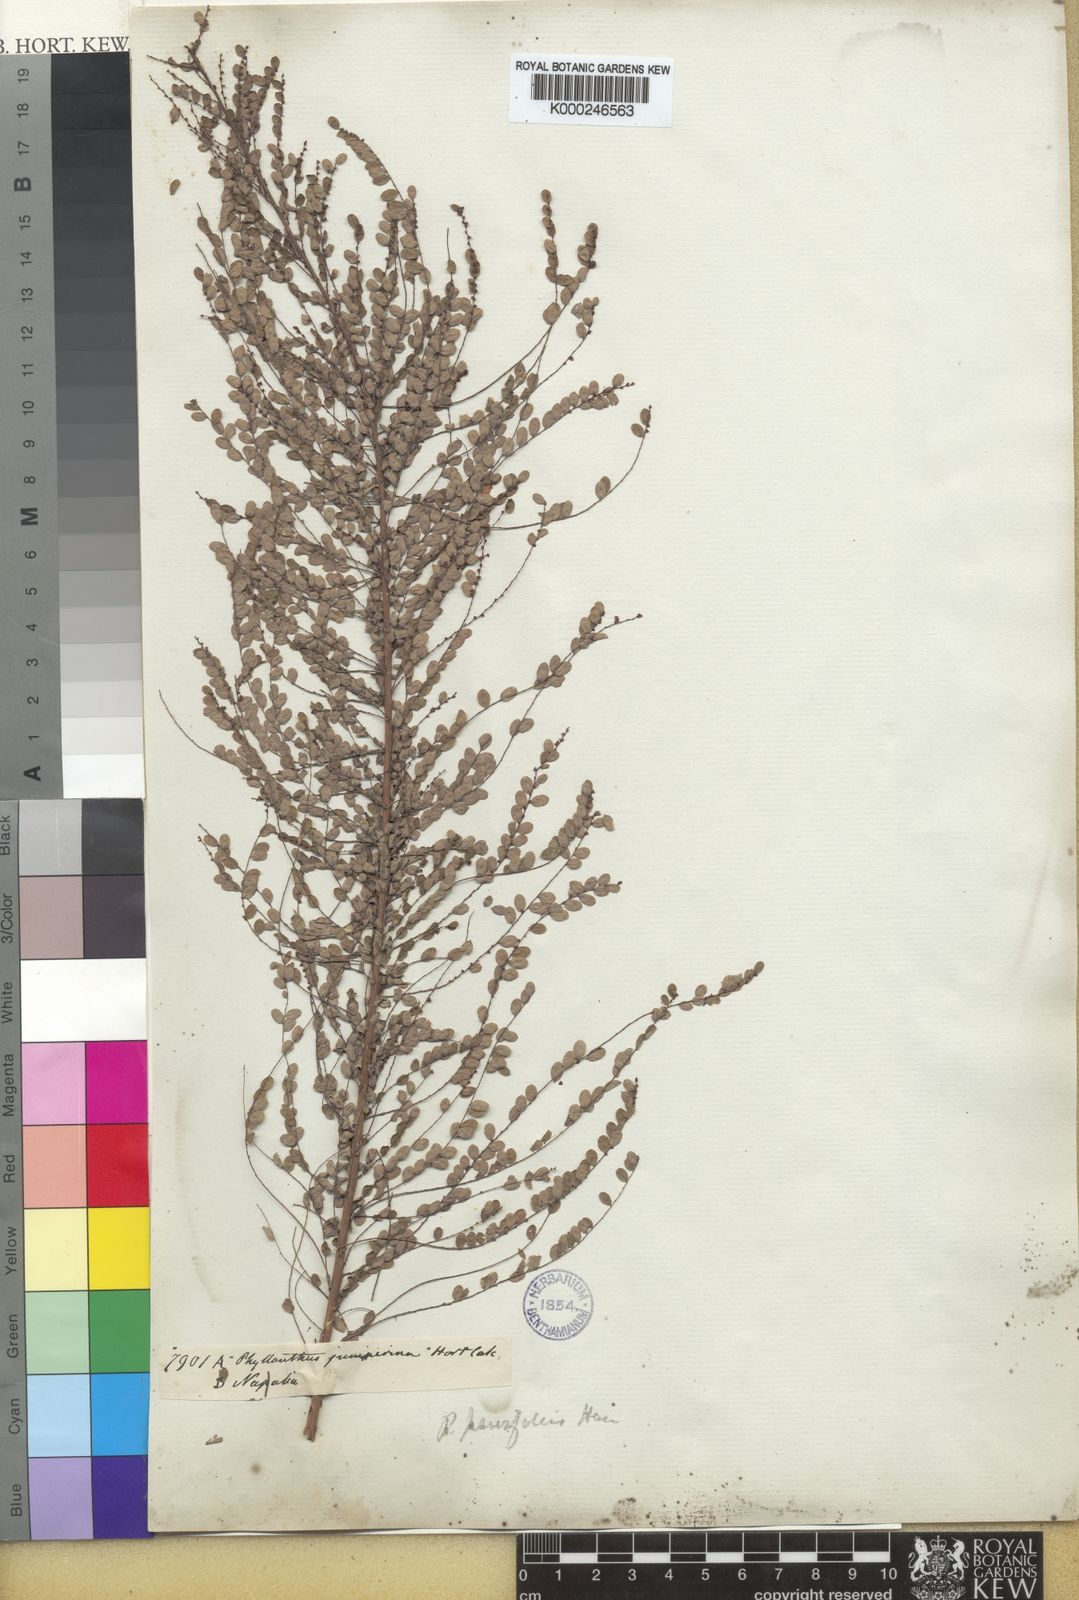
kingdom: Plantae
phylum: Tracheophyta
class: Magnoliopsida
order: Malpighiales
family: Phyllanthaceae
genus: Phyllanthus
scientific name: Phyllanthus parvifolius
